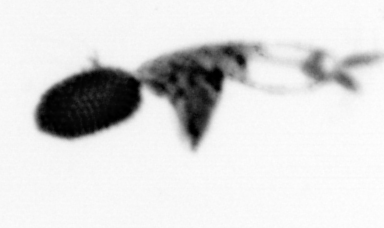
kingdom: Animalia
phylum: Arthropoda
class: Copepoda
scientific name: Copepoda
